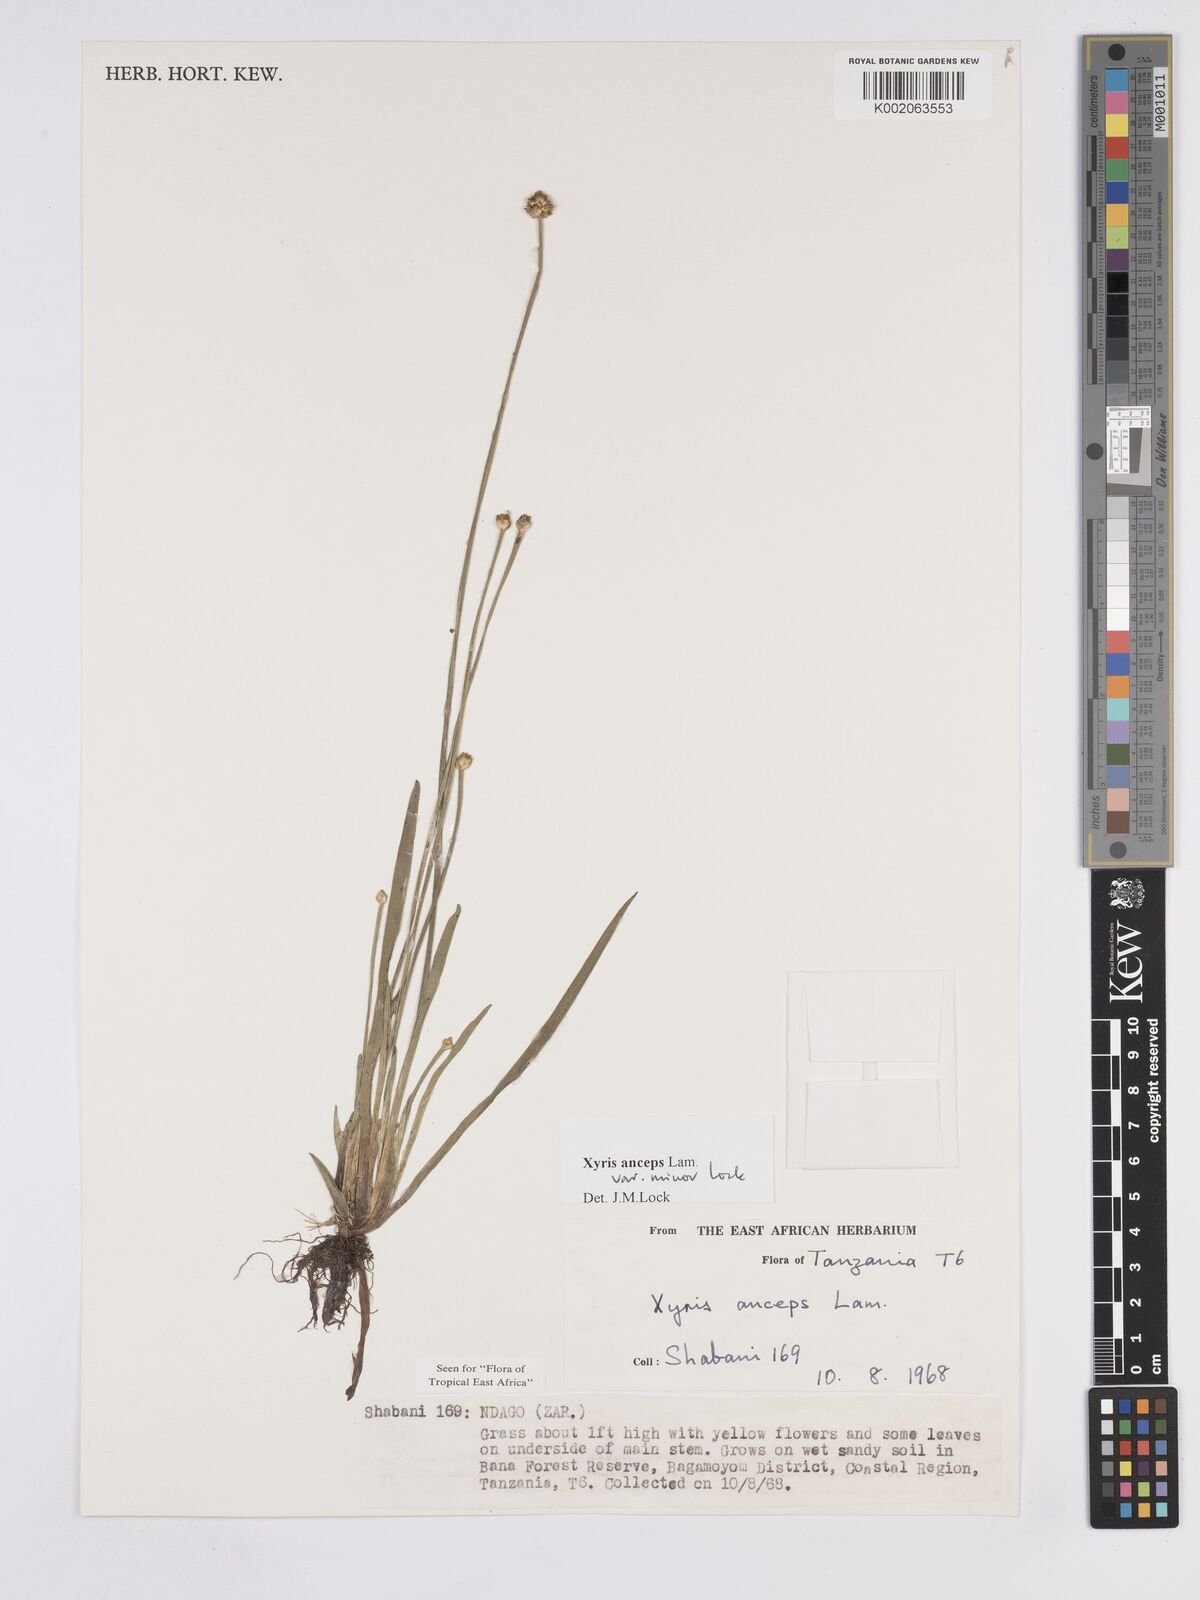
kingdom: Plantae
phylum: Tracheophyta
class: Liliopsida
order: Poales
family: Xyridaceae
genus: Xyris
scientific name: Xyris anceps
